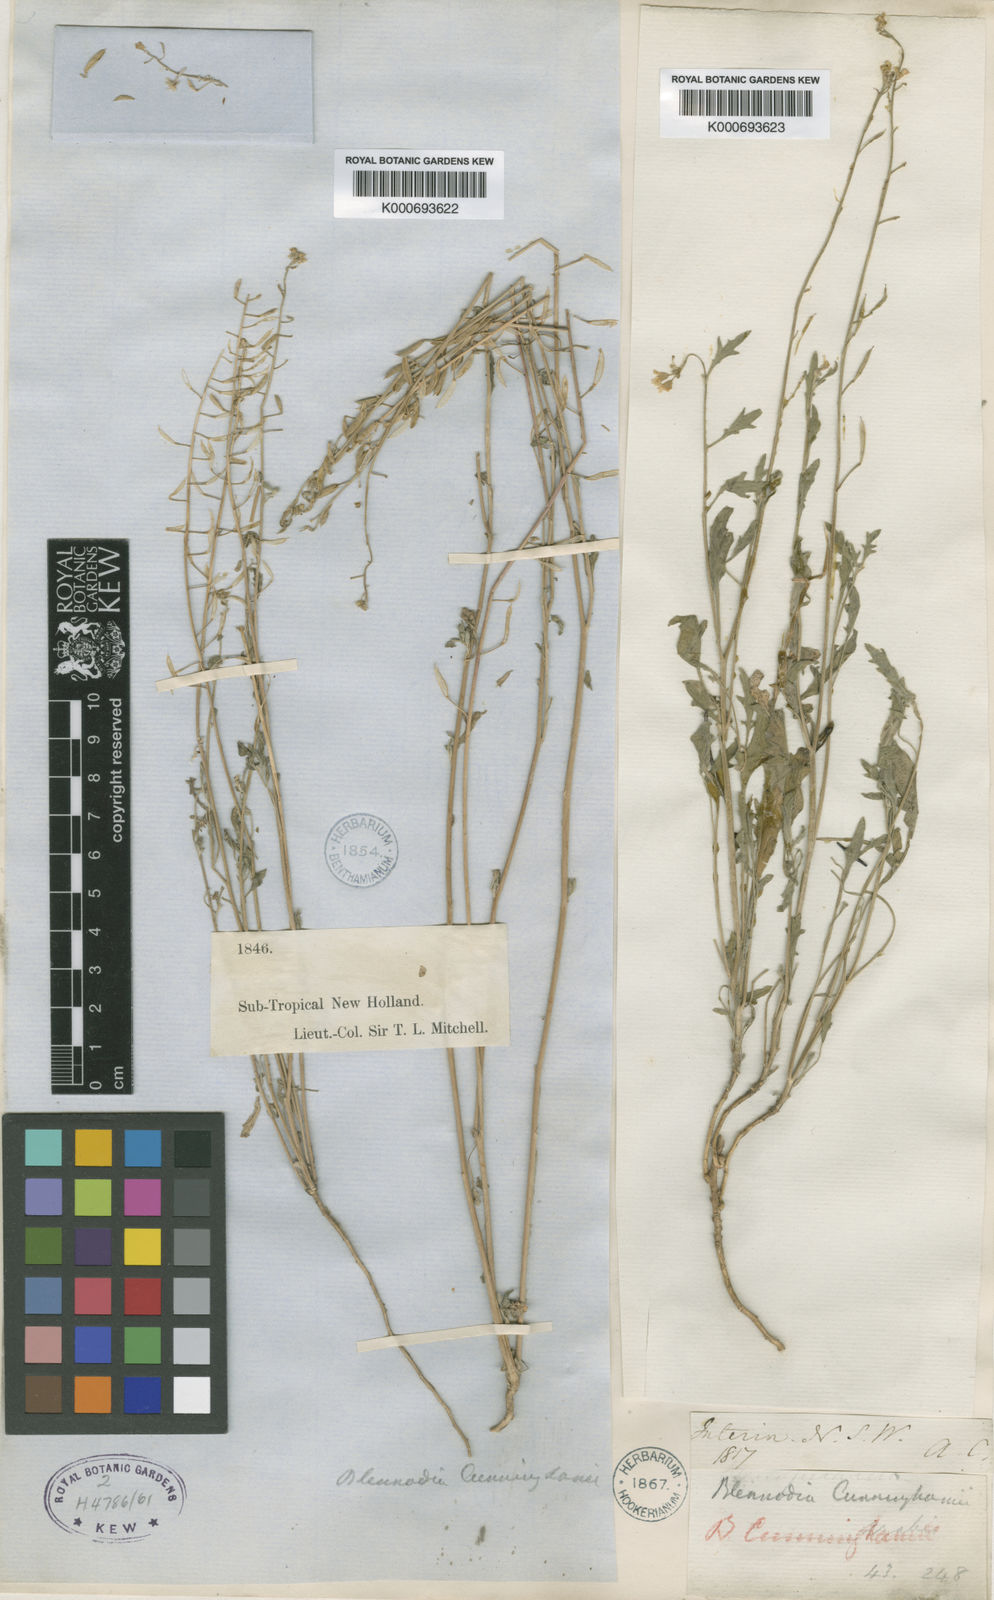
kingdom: Plantae
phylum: Tracheophyta
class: Magnoliopsida
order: Brassicales
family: Brassicaceae
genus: Harmsiodoxa
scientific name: Harmsiodoxa blennodioides
